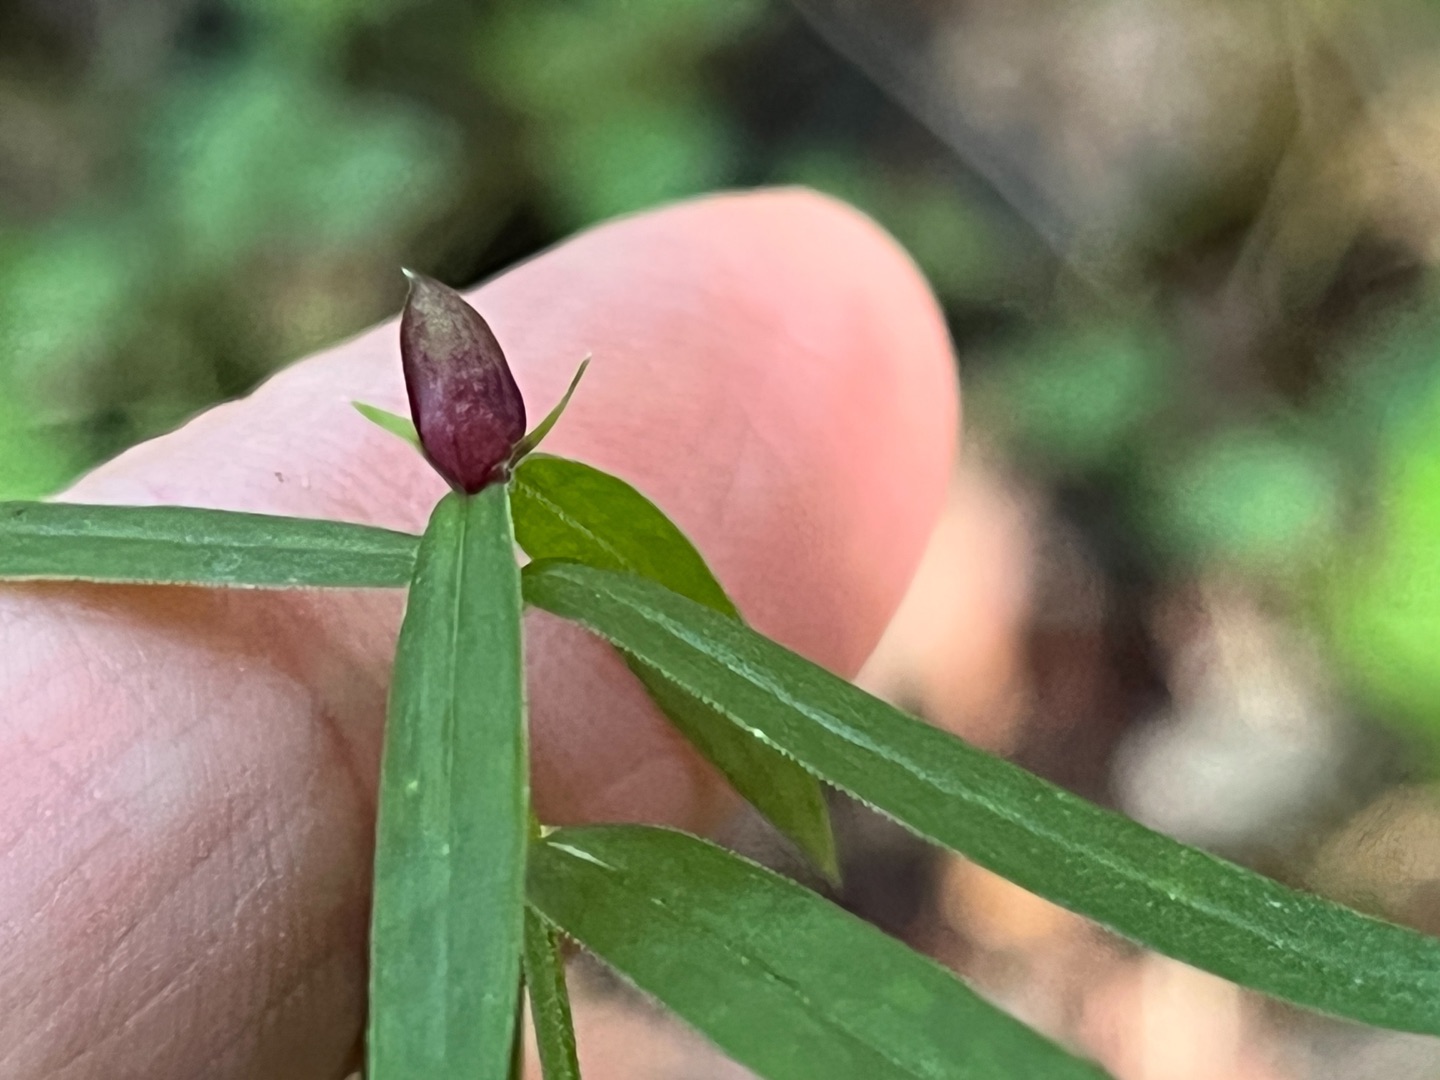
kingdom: Animalia
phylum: Arthropoda
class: Insecta
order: Diptera
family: Cecidomyiidae
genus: Dasineura
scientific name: Dasineura stellariae
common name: Fladstjernegalmyg
